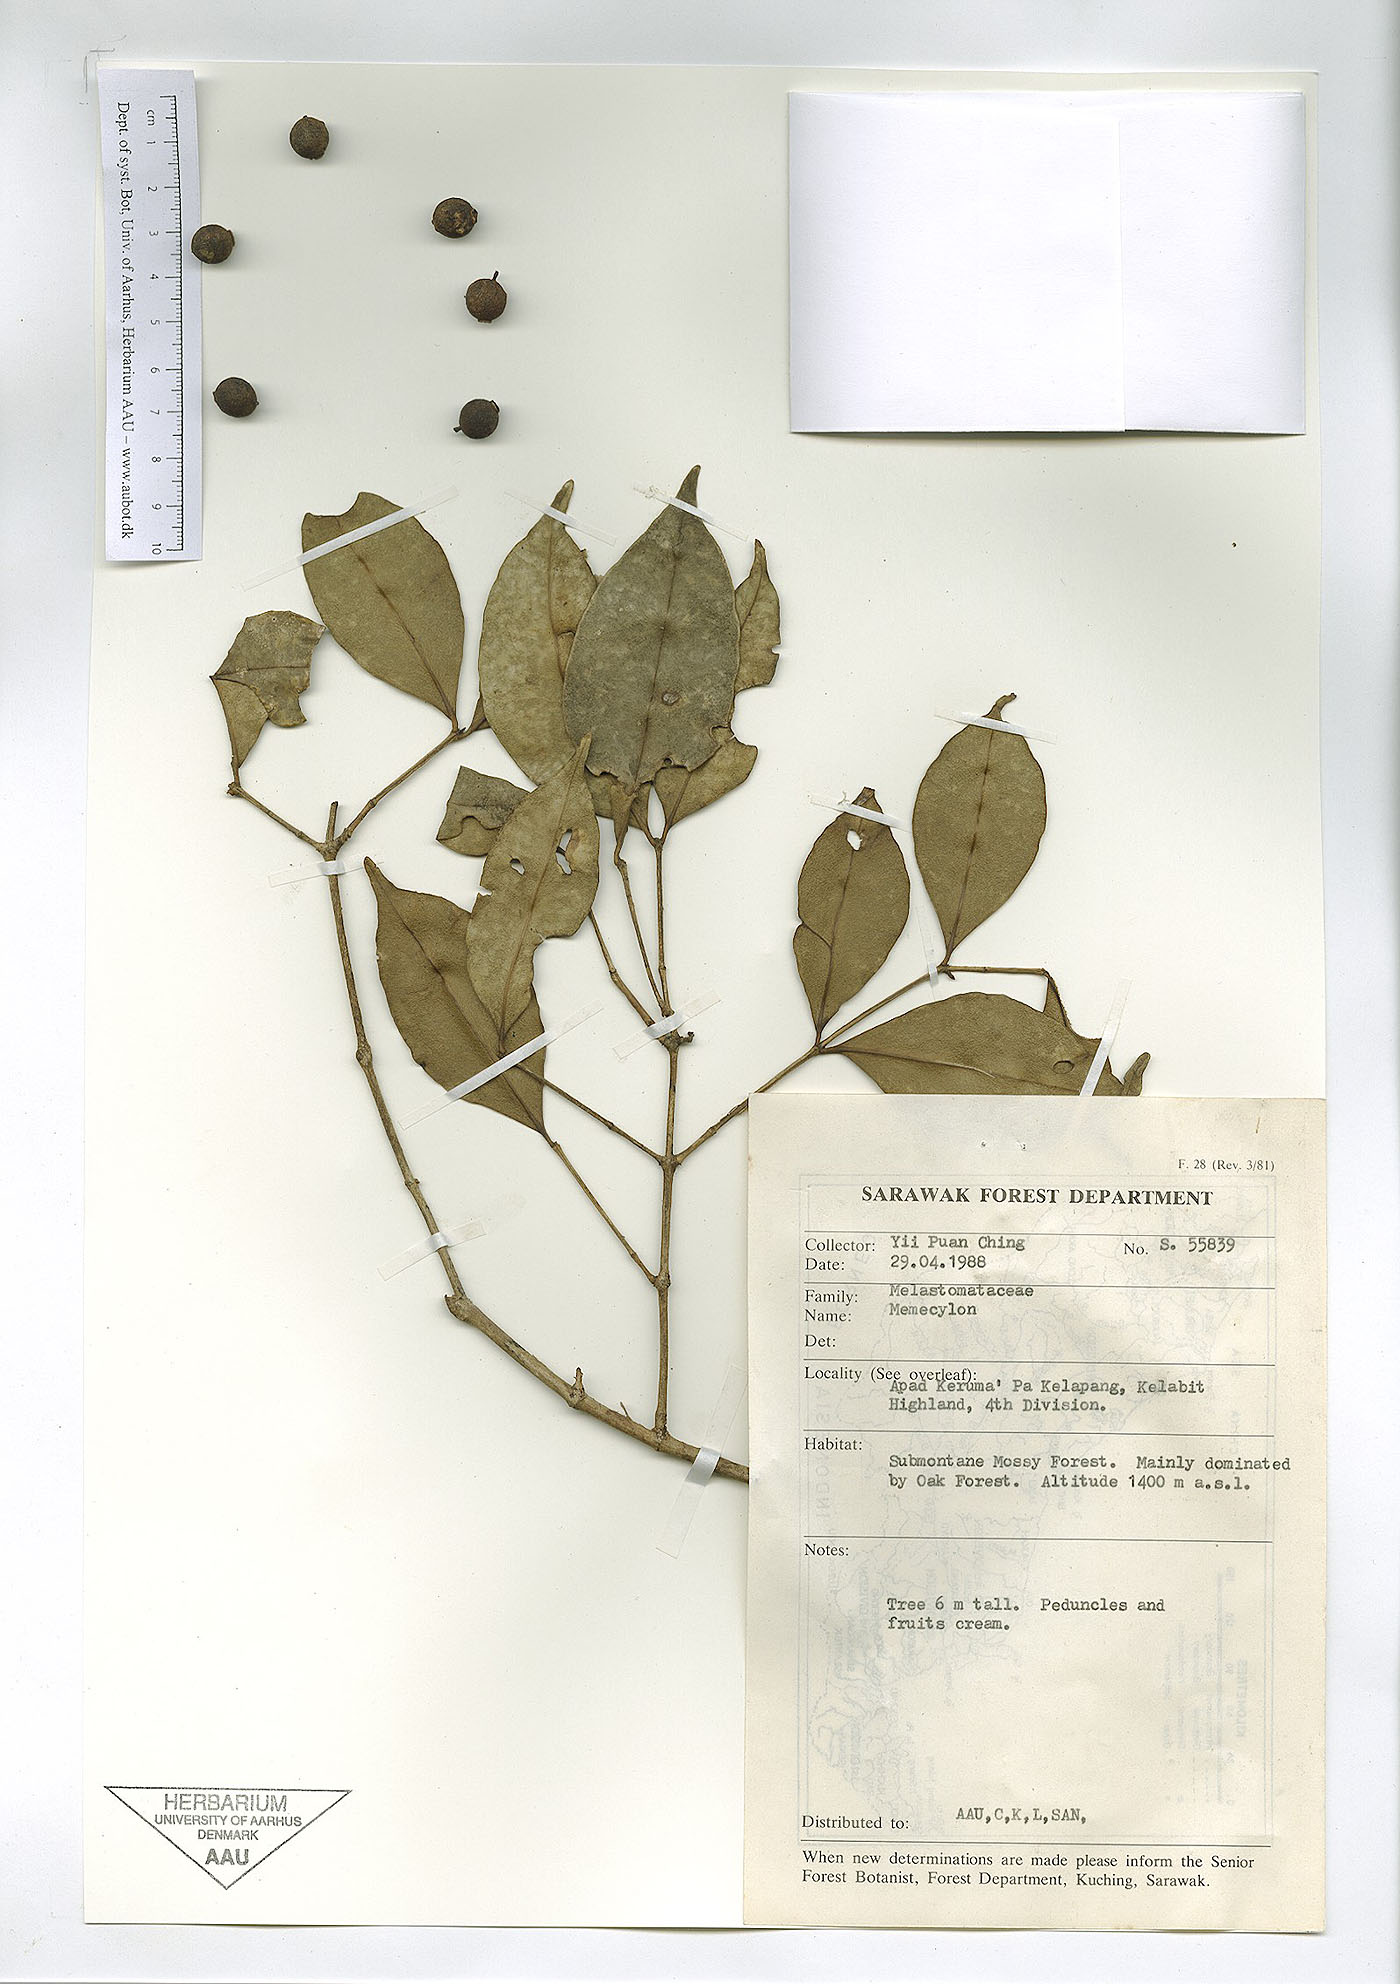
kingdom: Plantae
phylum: Tracheophyta
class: Magnoliopsida
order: Myrtales
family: Melastomataceae
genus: Memecylon
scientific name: Memecylon
